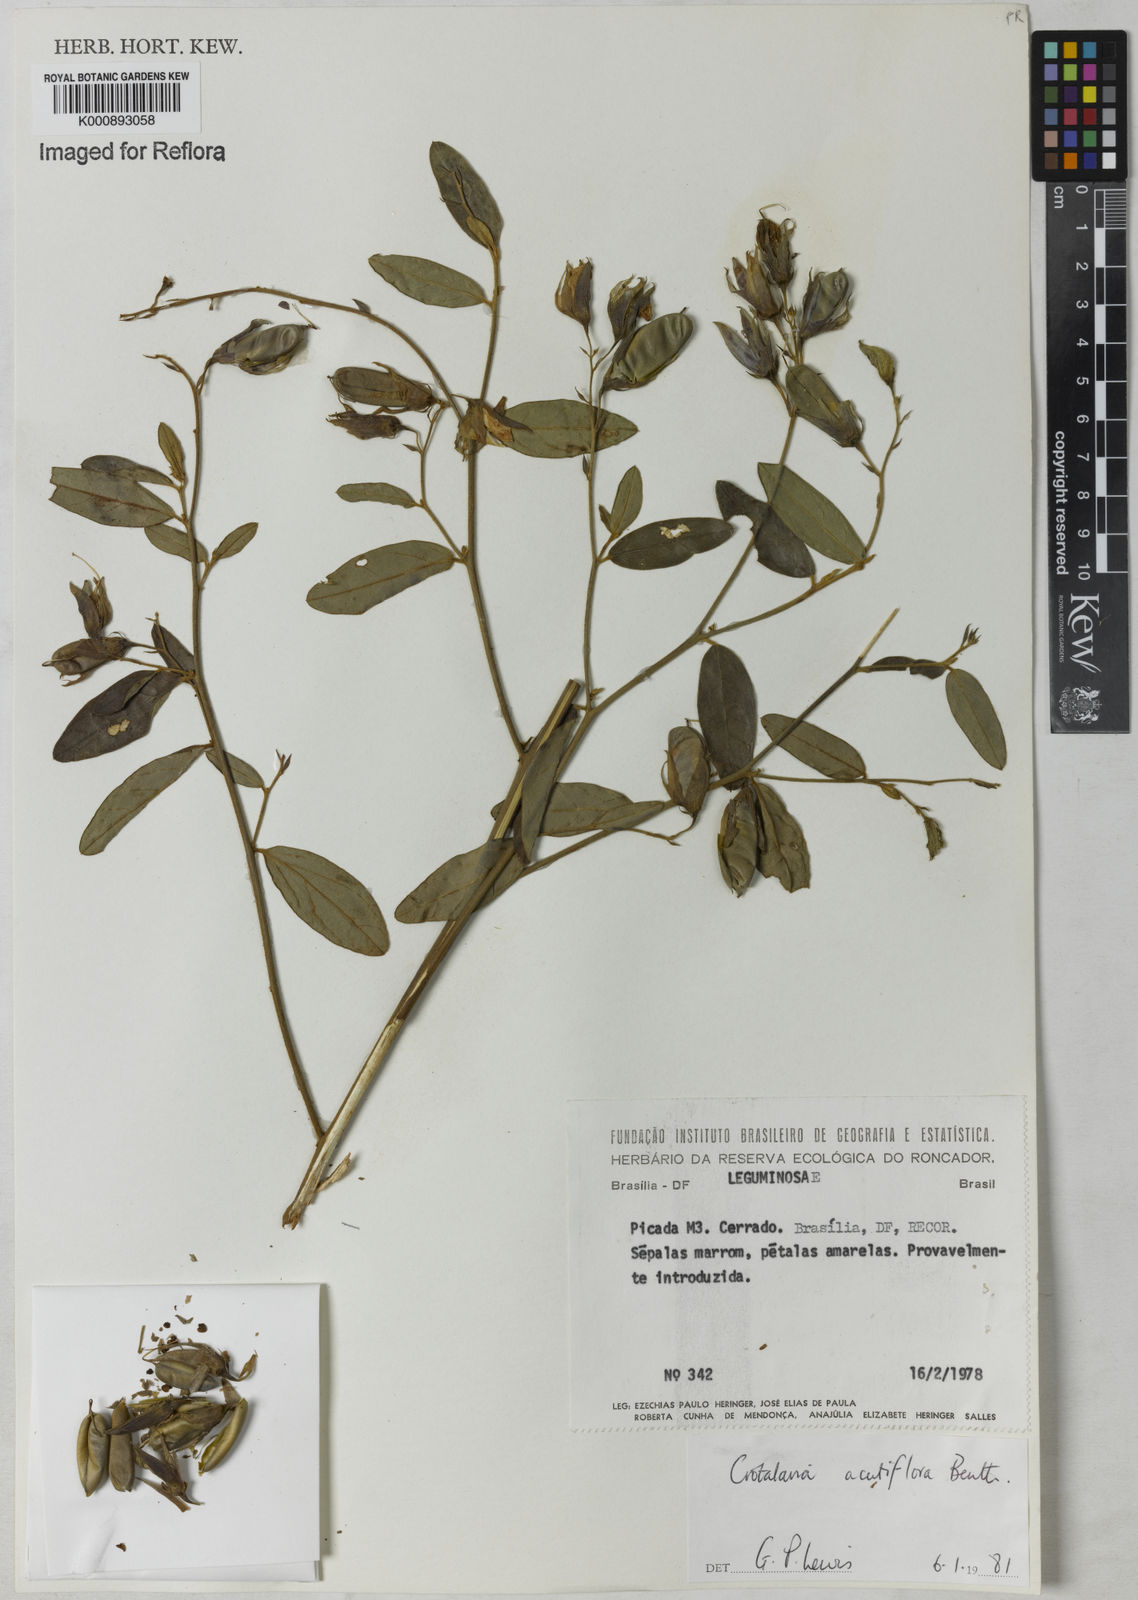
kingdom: Plantae
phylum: Tracheophyta
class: Magnoliopsida
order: Fabales
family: Fabaceae
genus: Crotalaria
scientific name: Crotalaria grandiflora
